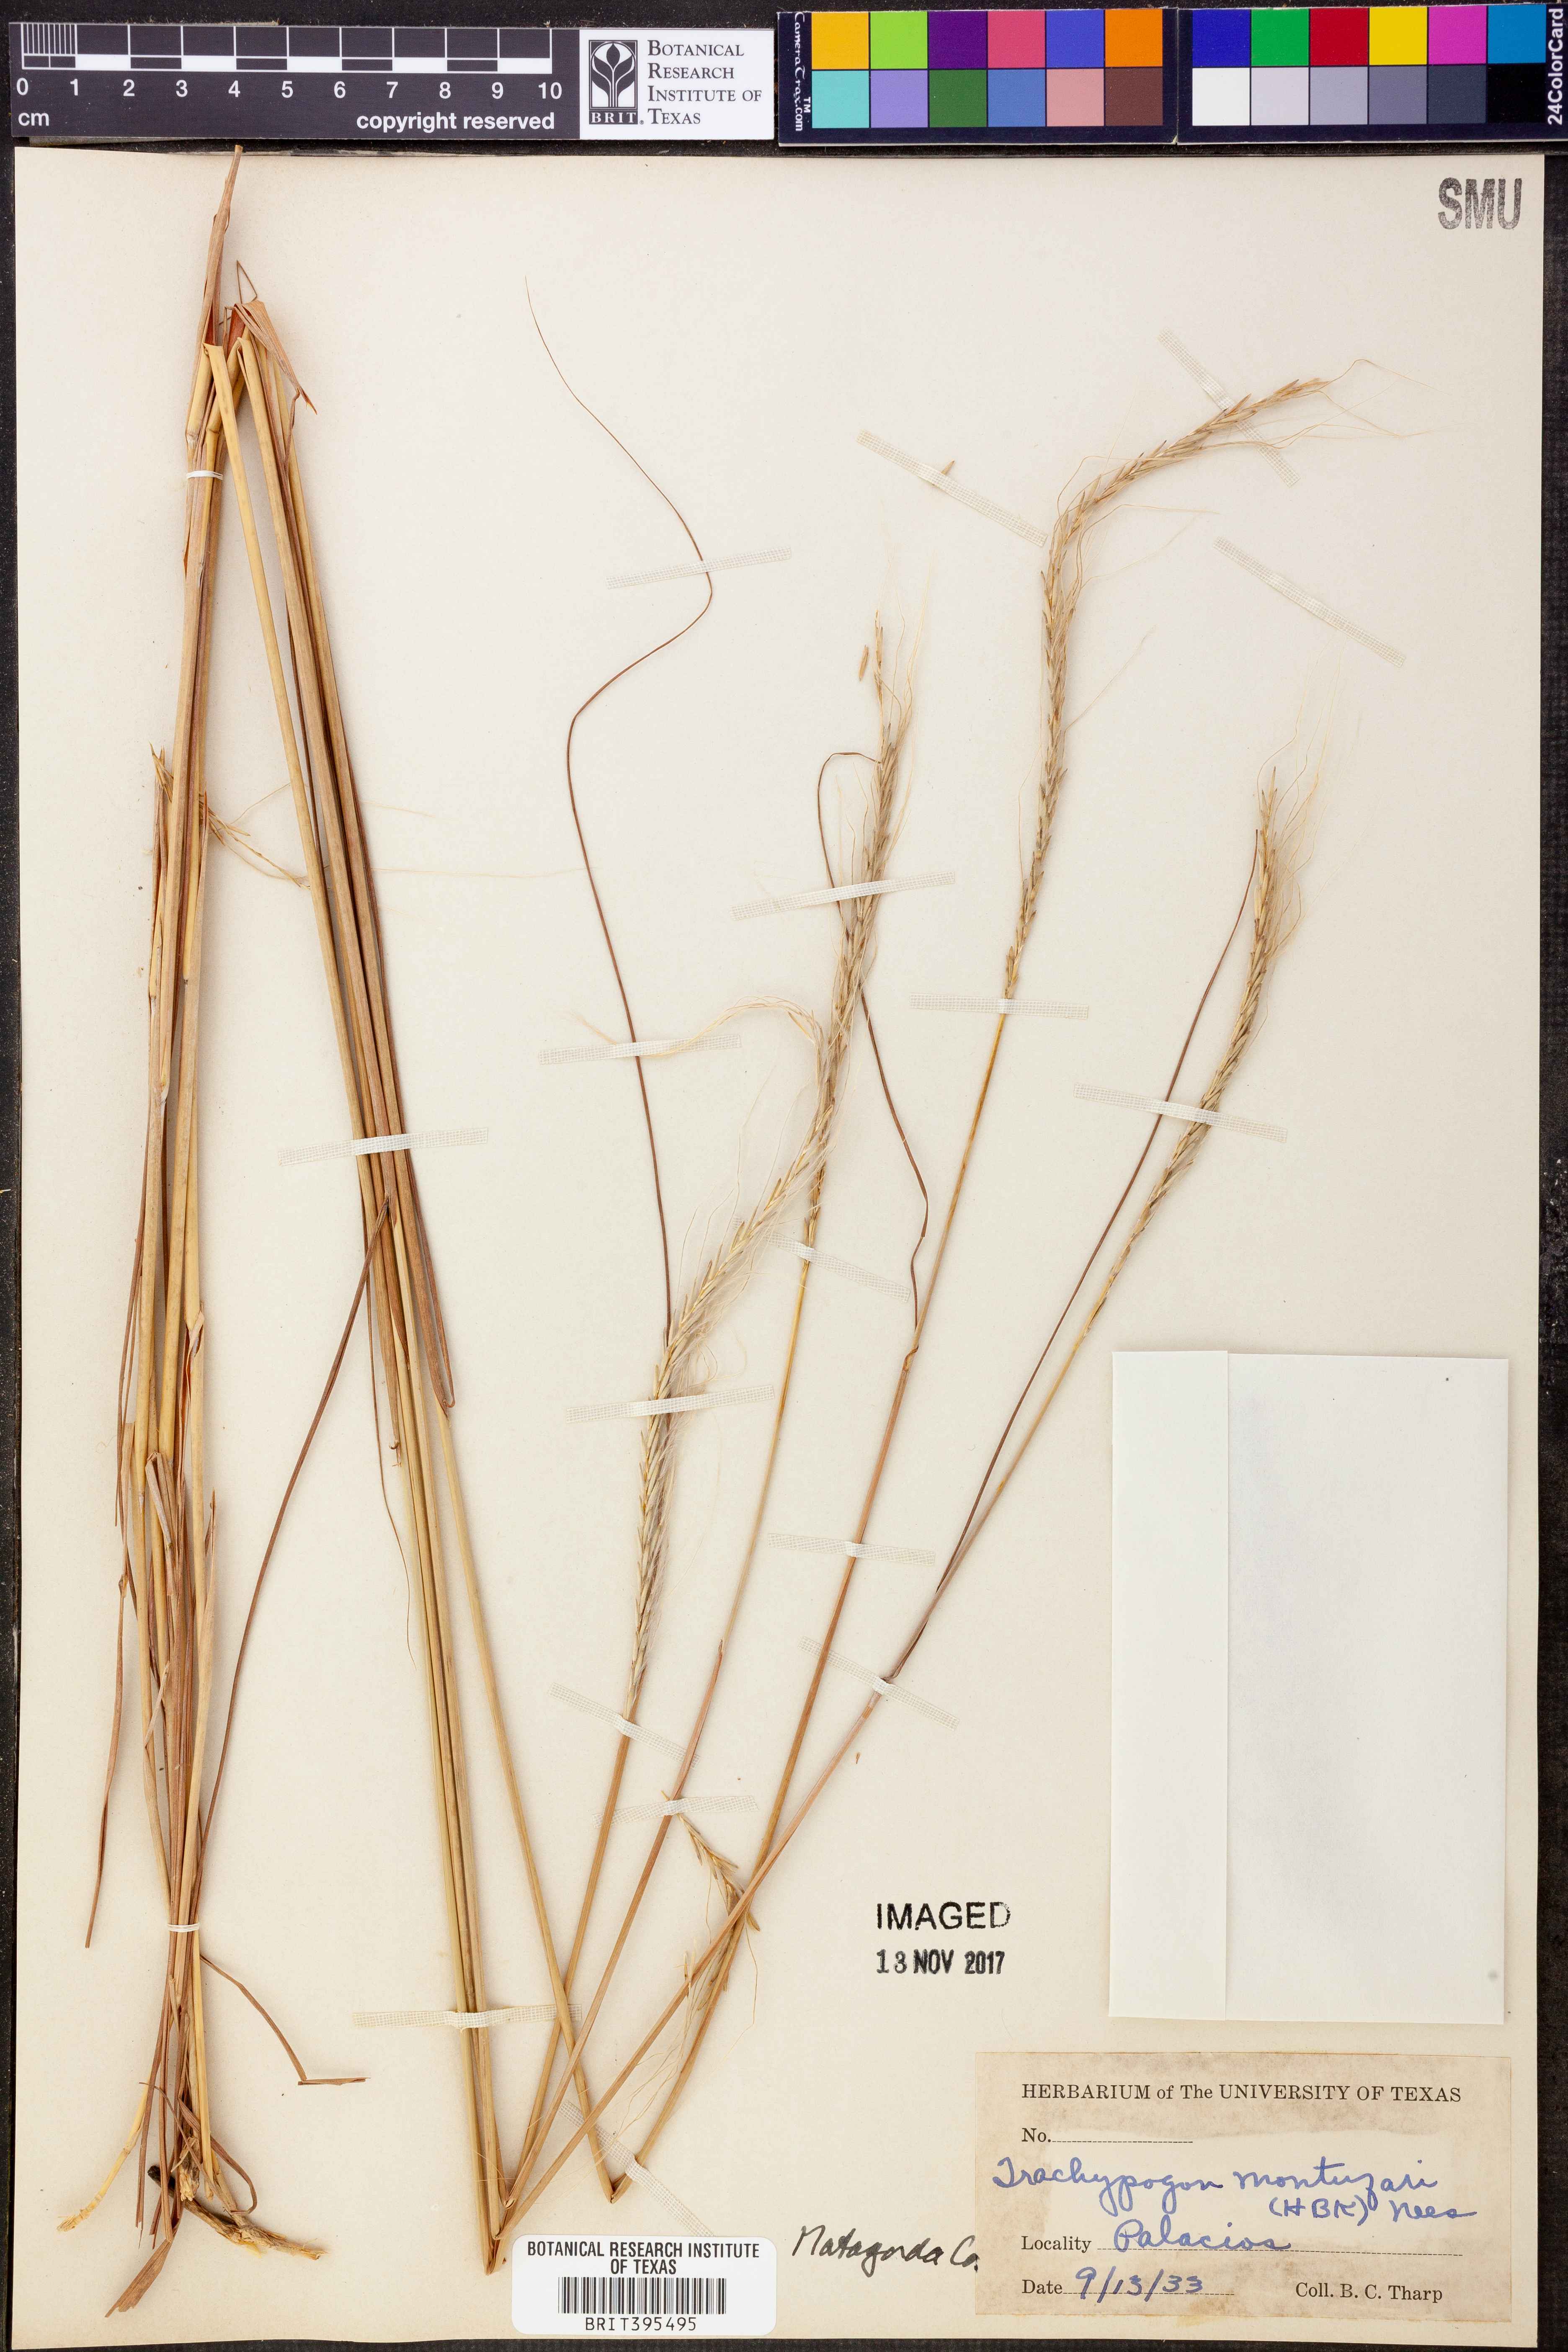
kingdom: Plantae
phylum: Tracheophyta
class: Liliopsida
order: Poales
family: Poaceae
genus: Trachypogon
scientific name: Trachypogon spicatus
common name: Crinkle-awn
